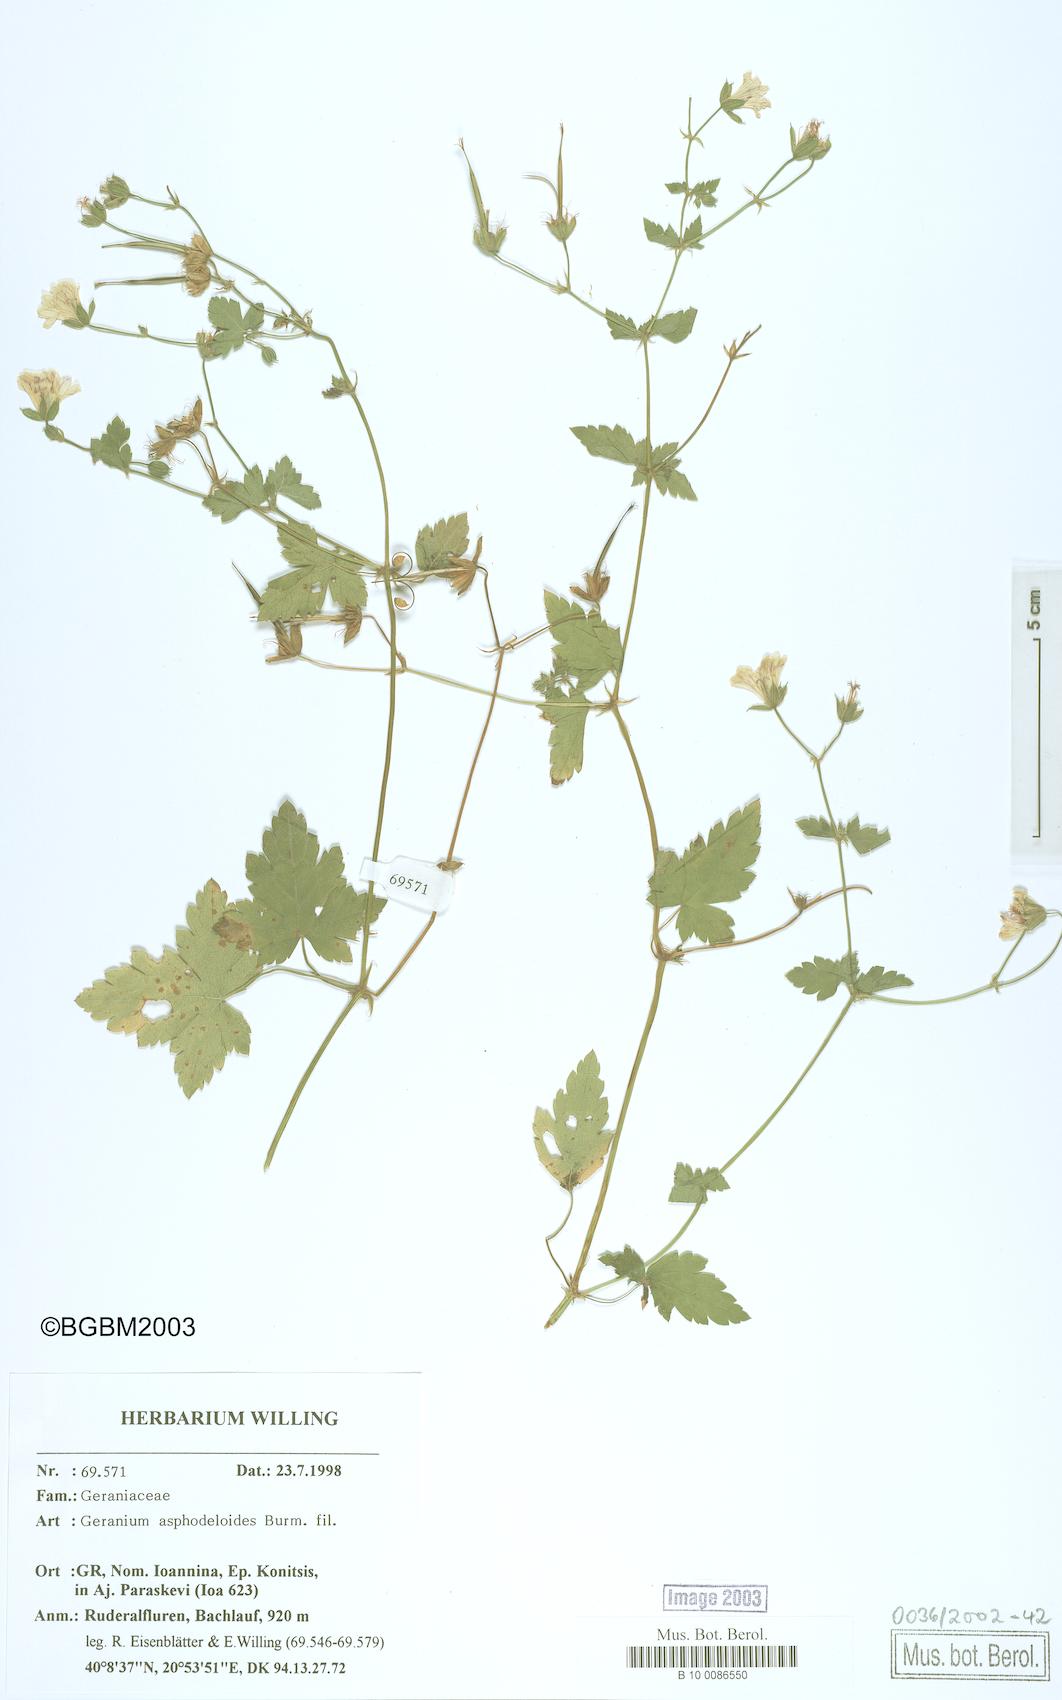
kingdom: Plantae
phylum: Tracheophyta
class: Magnoliopsida
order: Geraniales
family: Geraniaceae
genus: Geranium
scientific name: Geranium asphodeloides
